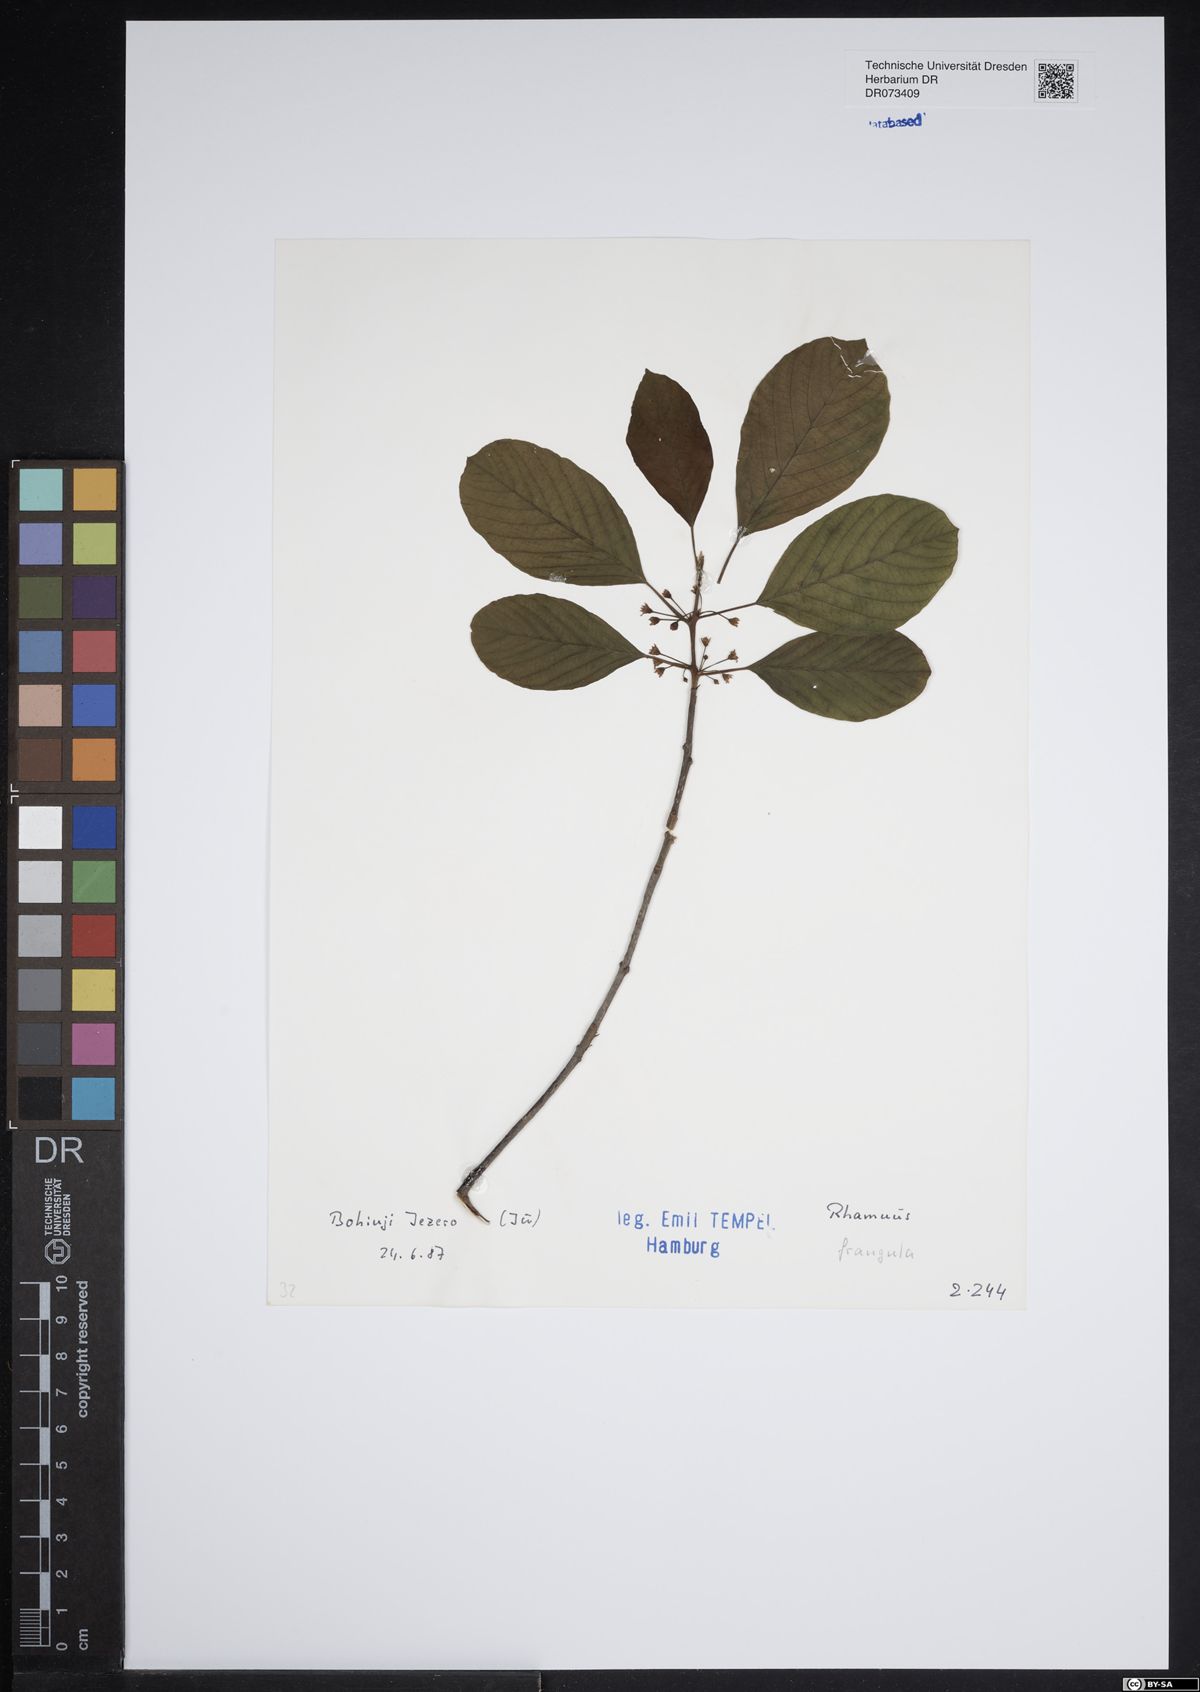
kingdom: Plantae
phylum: Tracheophyta
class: Magnoliopsida
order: Rosales
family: Rhamnaceae
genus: Frangula
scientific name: Frangula alnus
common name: Alder buckthorn
